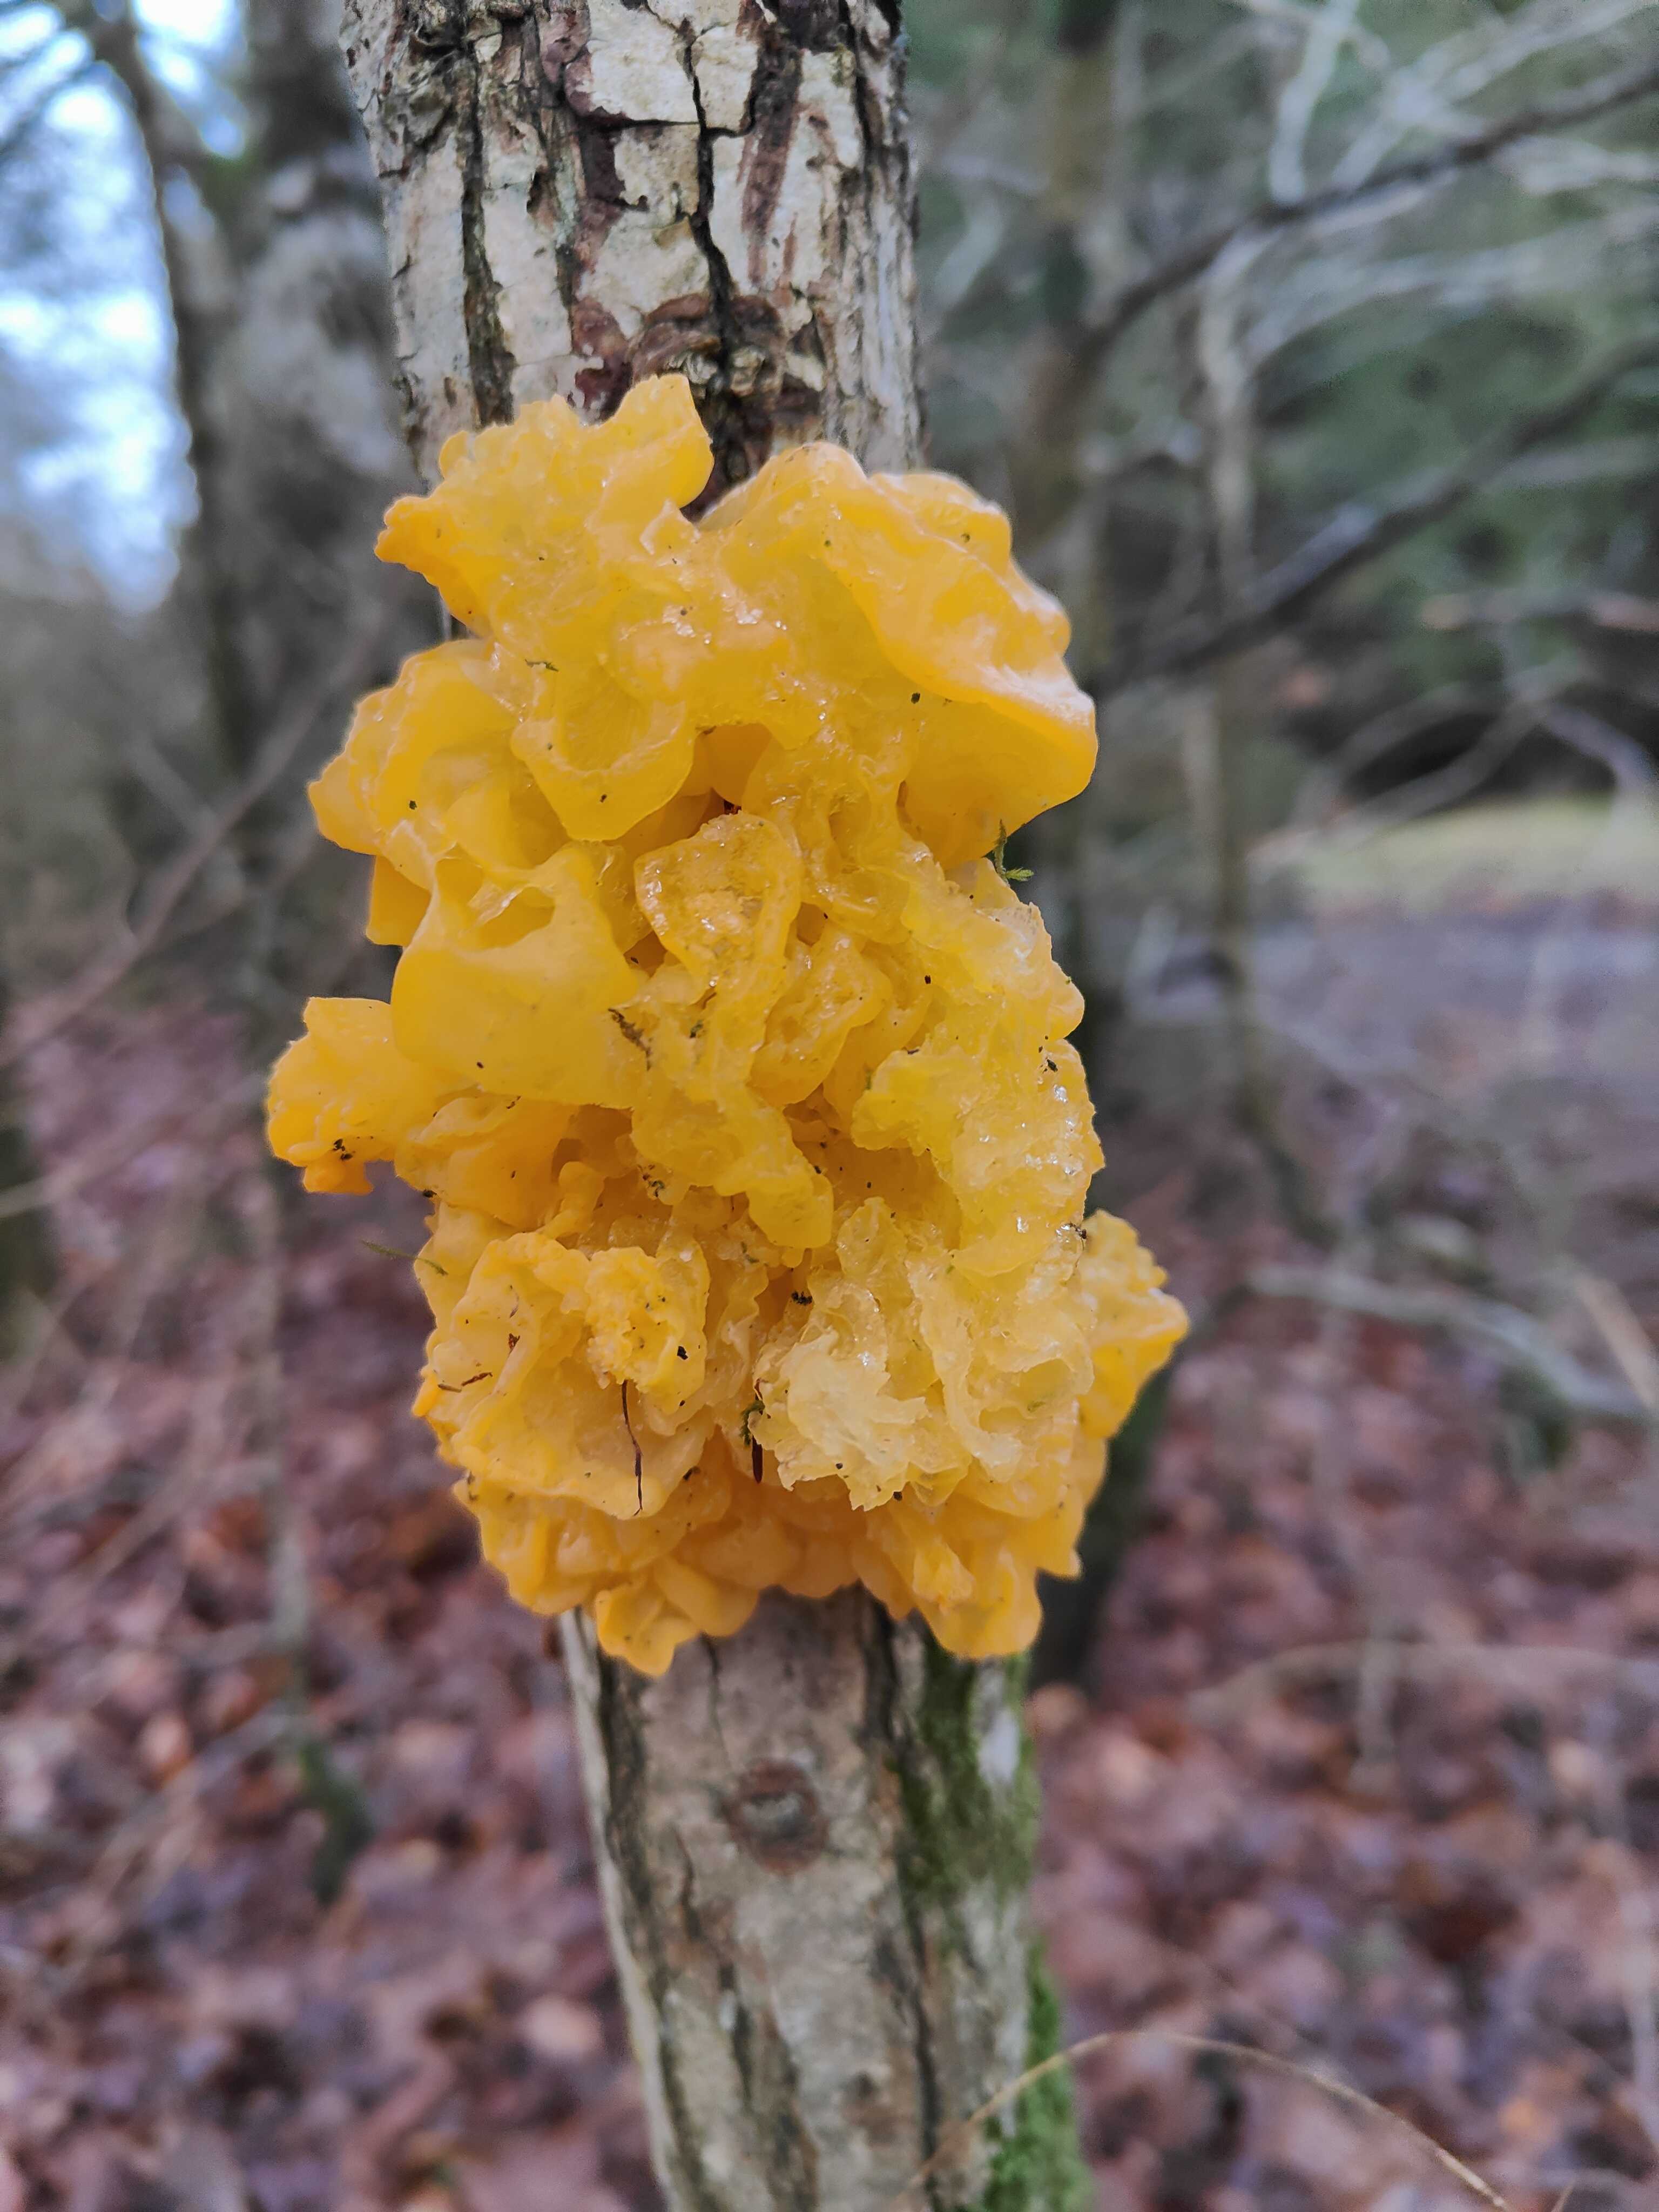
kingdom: Fungi
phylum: Basidiomycota
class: Tremellomycetes
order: Tremellales
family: Tremellaceae
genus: Tremella
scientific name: Tremella mesenterica
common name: gul bævresvamp
